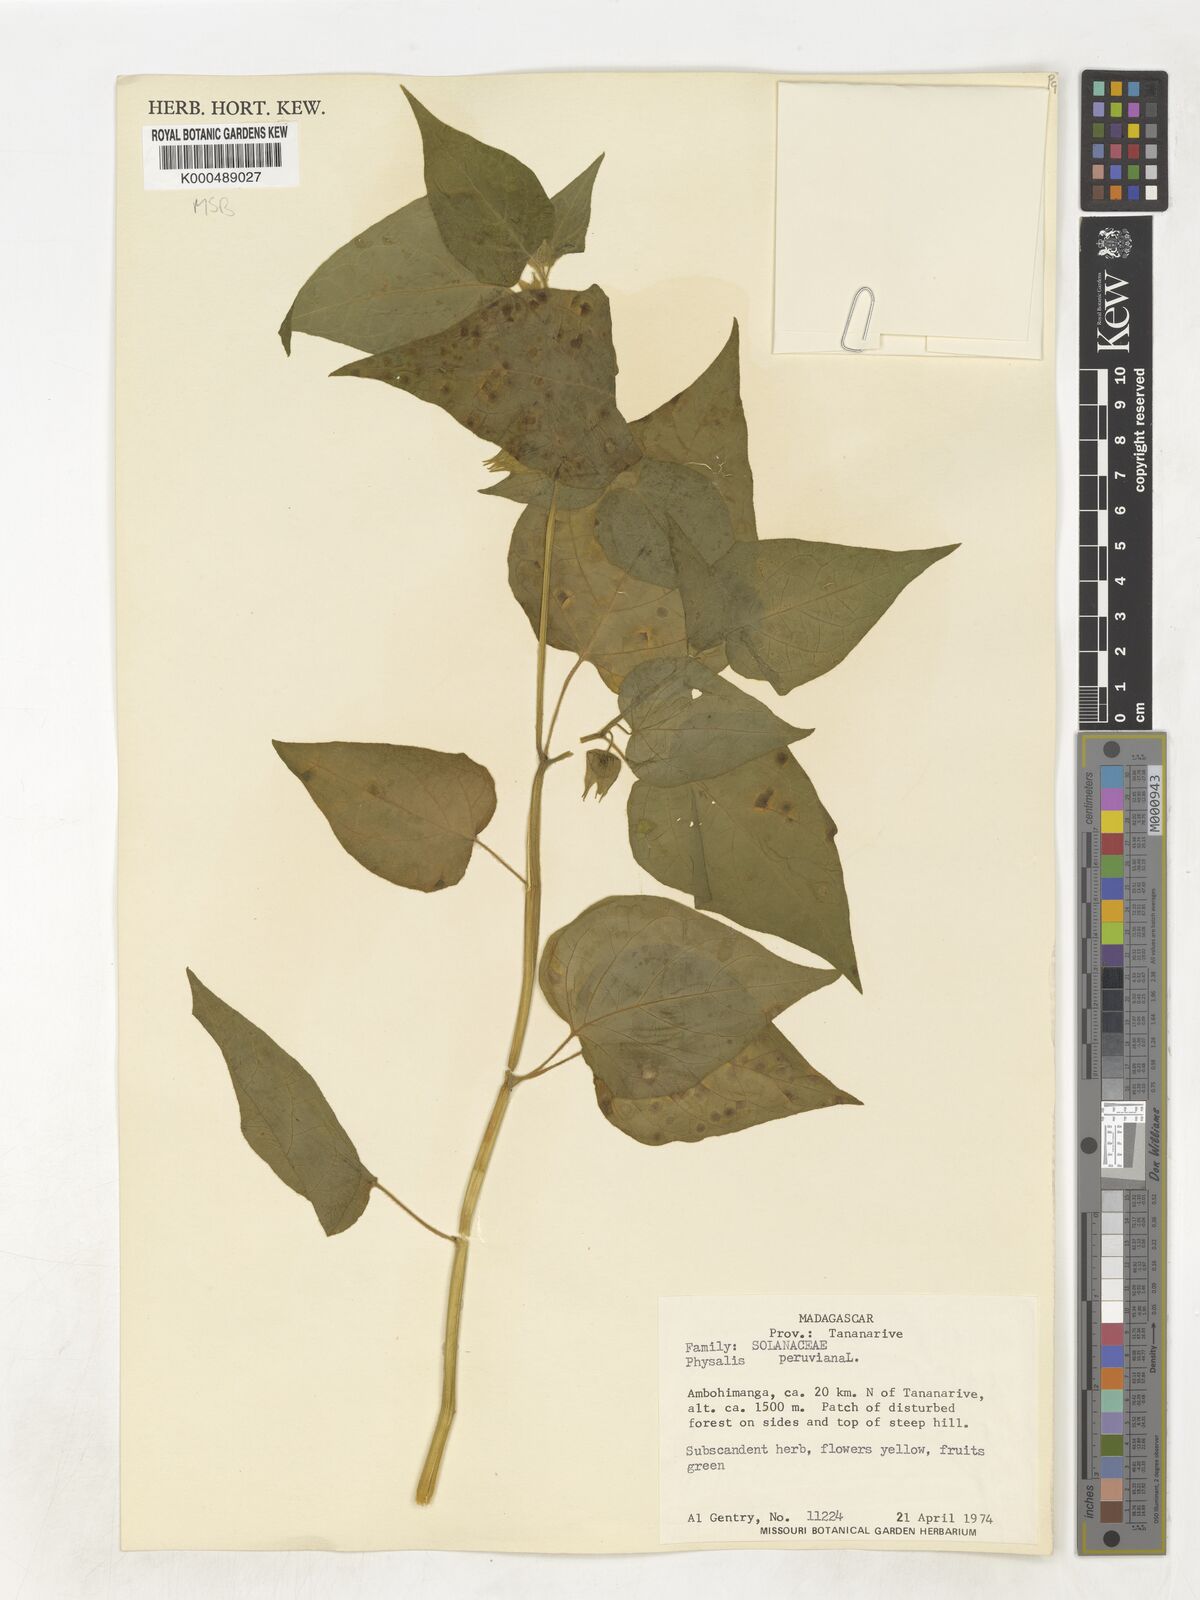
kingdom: Plantae
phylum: Tracheophyta
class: Magnoliopsida
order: Solanales
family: Solanaceae
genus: Physalis
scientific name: Physalis peruviana
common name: Cape-gooseberry
